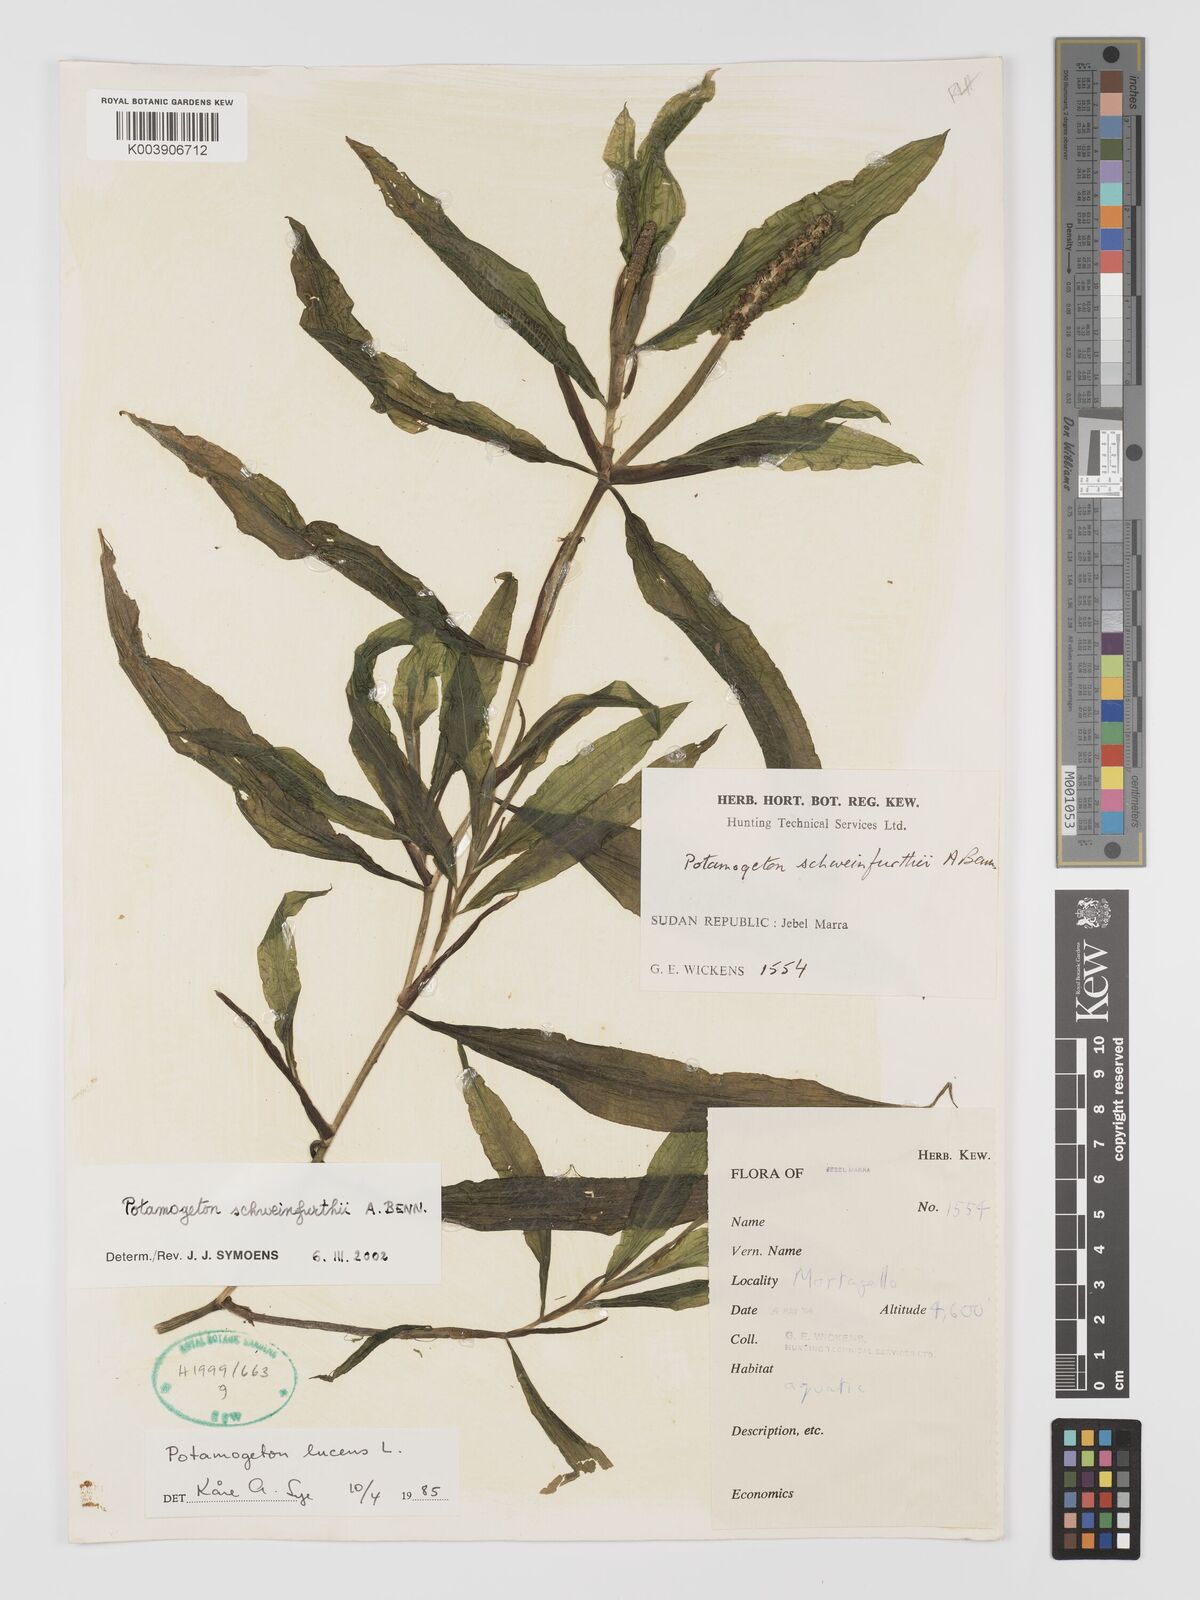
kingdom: Plantae
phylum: Tracheophyta
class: Liliopsida
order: Alismatales
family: Potamogetonaceae
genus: Potamogeton
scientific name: Potamogeton schweinfurthii
